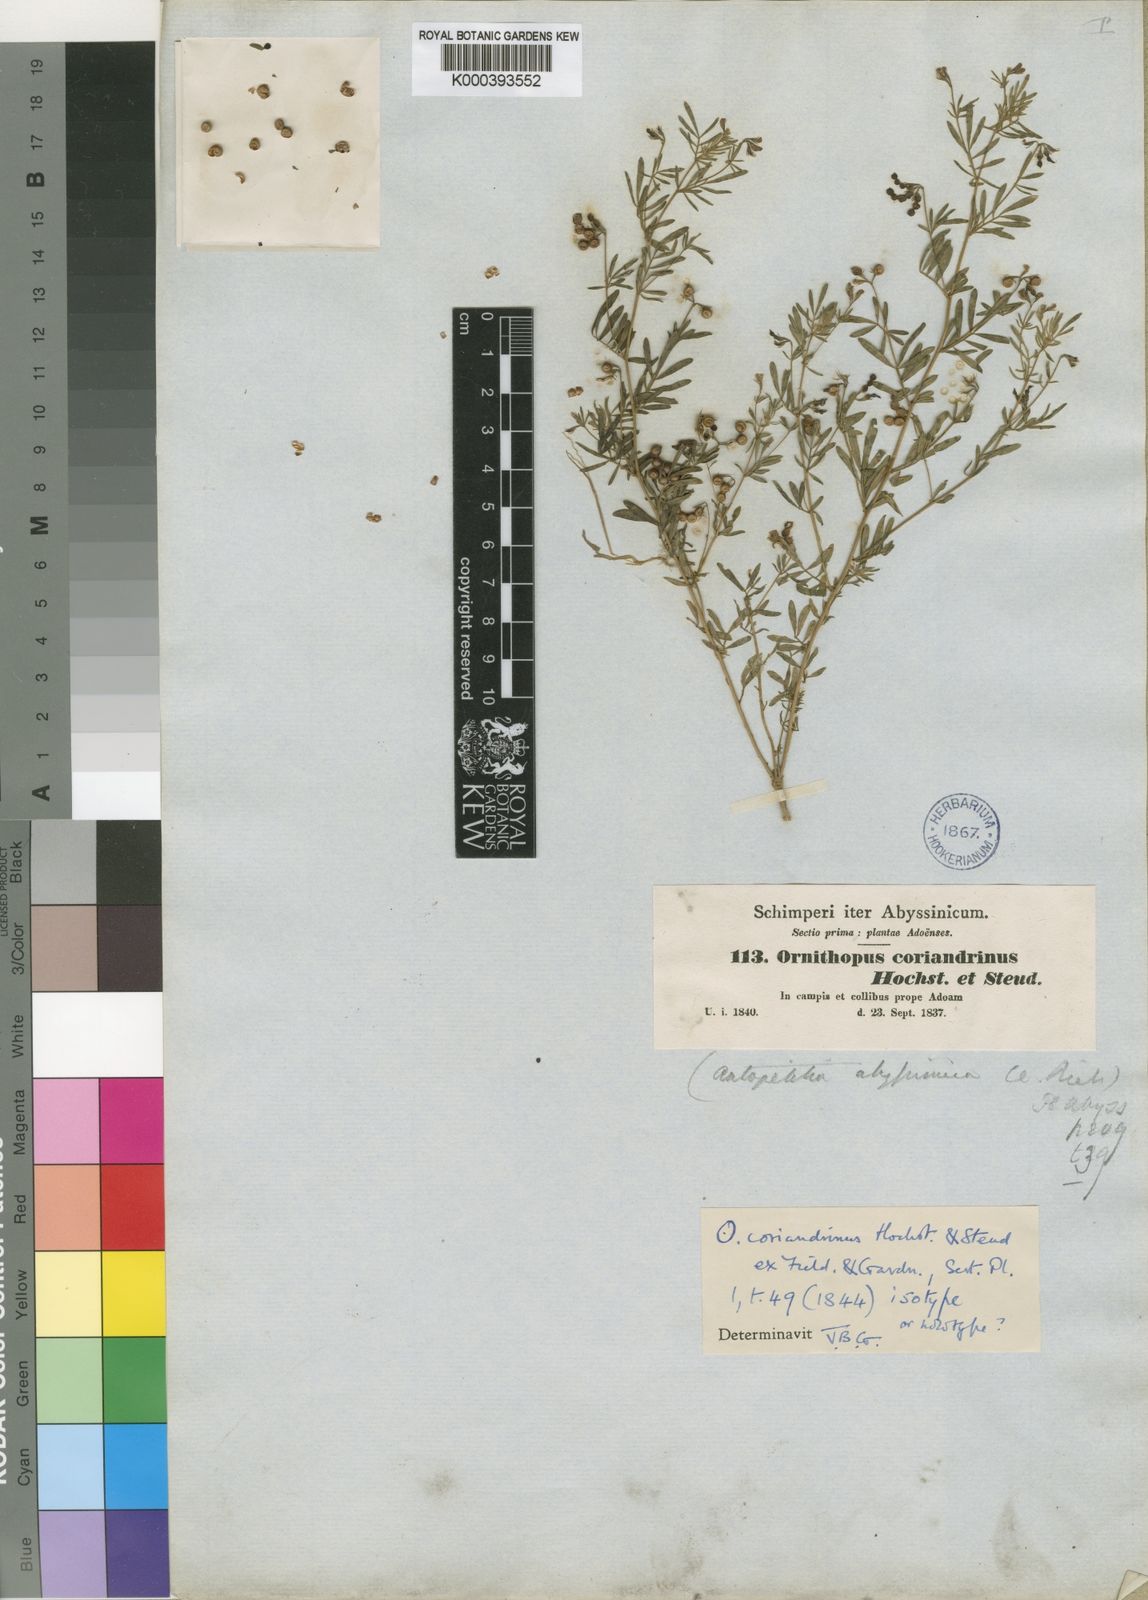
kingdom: Plantae
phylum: Tracheophyta
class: Magnoliopsida
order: Fabales
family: Fabaceae
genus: Antopetitia
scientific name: Antopetitia abyssinica
